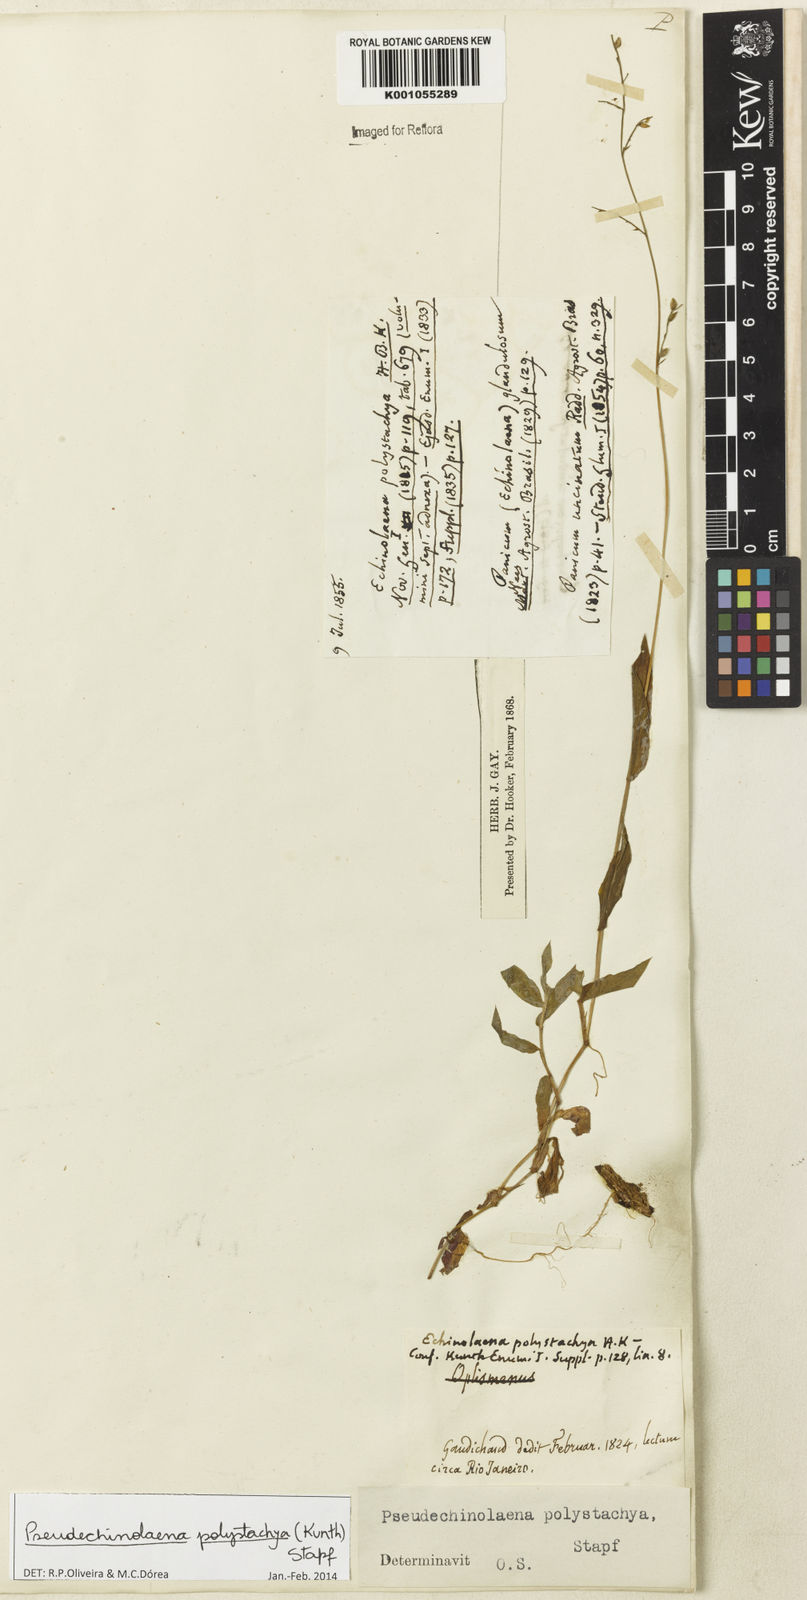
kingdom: Plantae
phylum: Tracheophyta
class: Liliopsida
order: Poales
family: Poaceae
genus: Pseudechinolaena
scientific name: Pseudechinolaena polystachya
